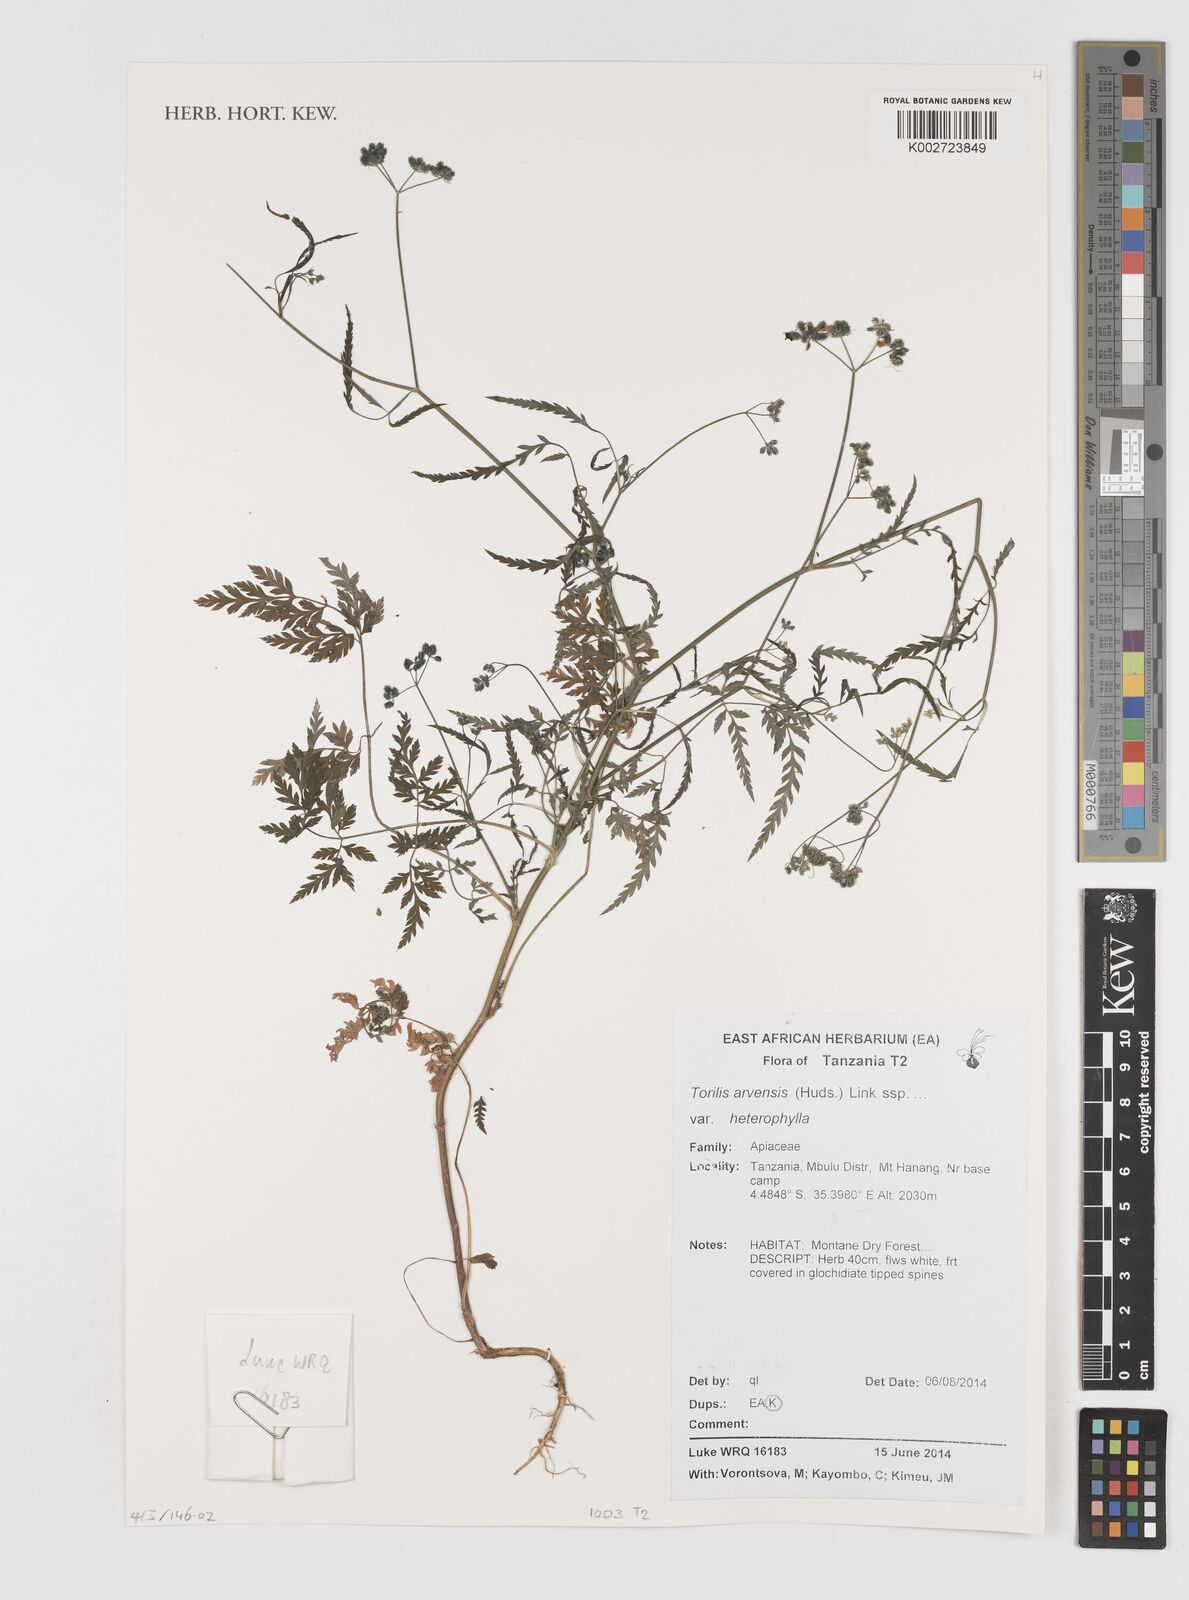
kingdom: Plantae
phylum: Tracheophyta
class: Magnoliopsida
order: Apiales
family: Apiaceae
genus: Torilis
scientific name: Torilis arvensis
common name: Spreading hedge-parsley
